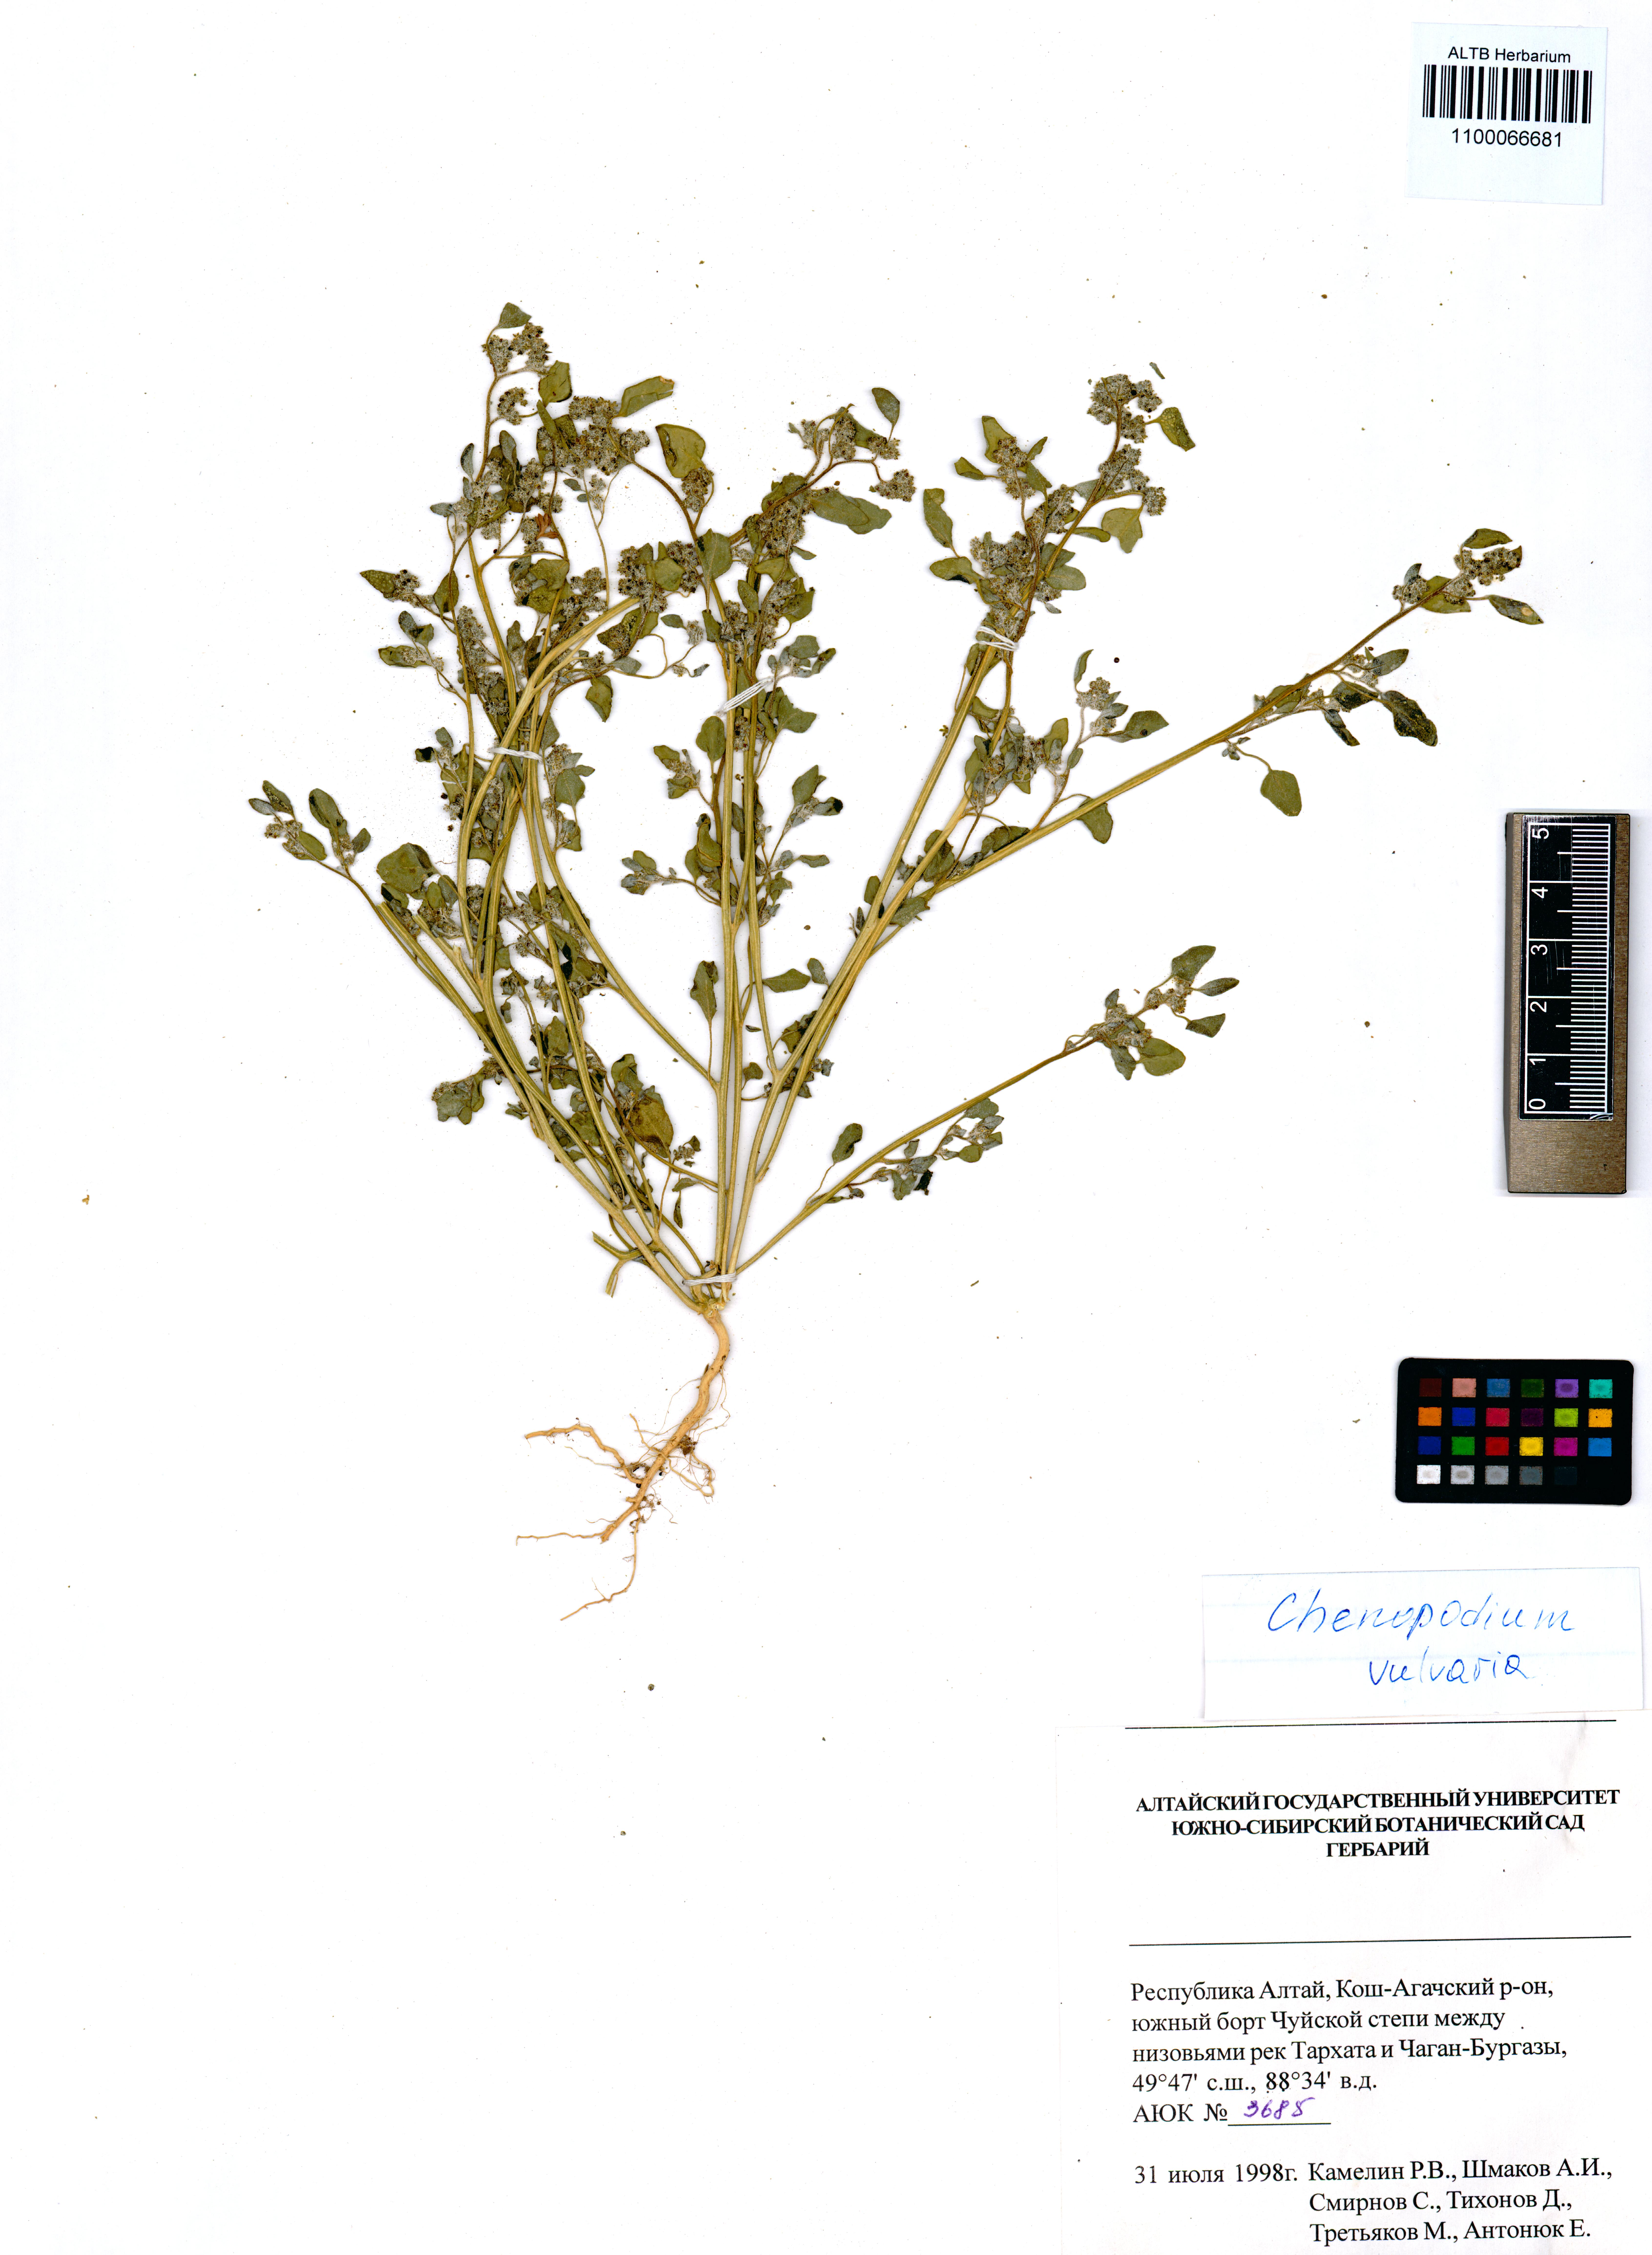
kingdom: Plantae
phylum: Tracheophyta
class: Magnoliopsida
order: Caryophyllales
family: Amaranthaceae
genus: Chenopodium
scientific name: Chenopodium vulvaria
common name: Stinking goosefoot
